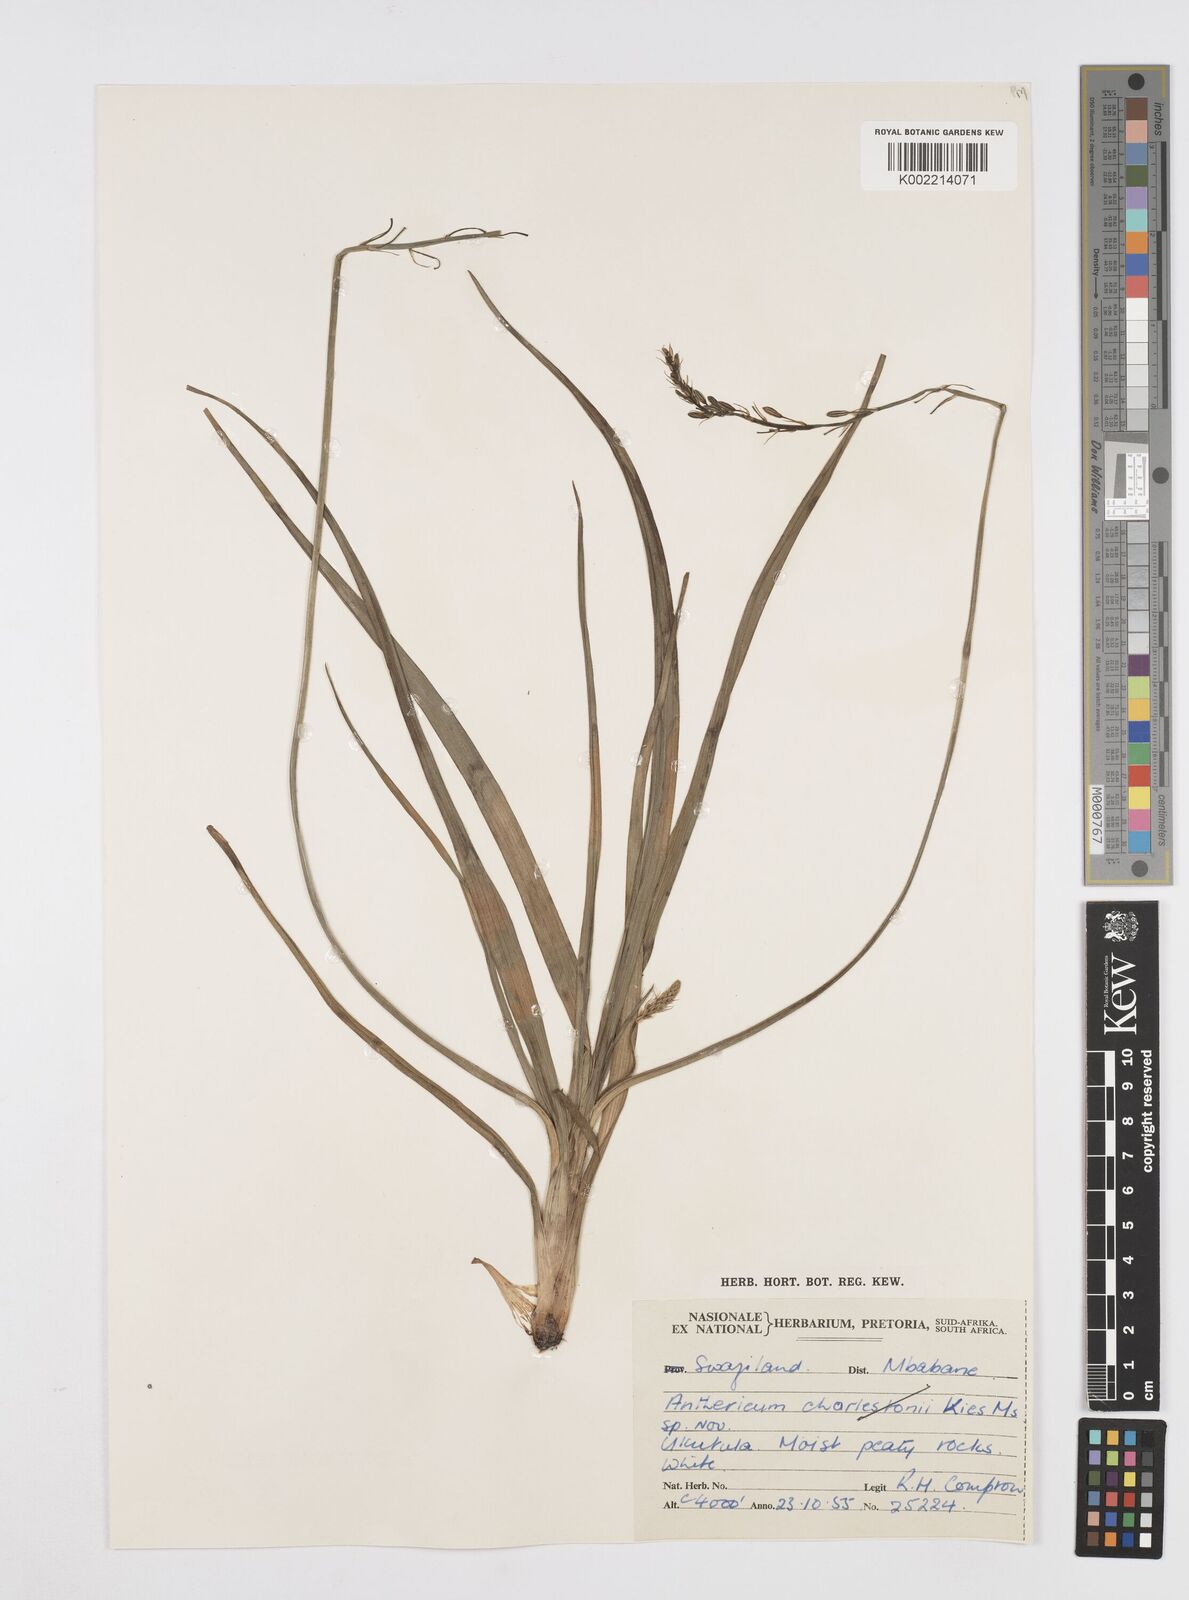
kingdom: Plantae
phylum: Tracheophyta
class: Liliopsida
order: Asparagales
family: Asphodelaceae
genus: Trachyandra
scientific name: Trachyandra
